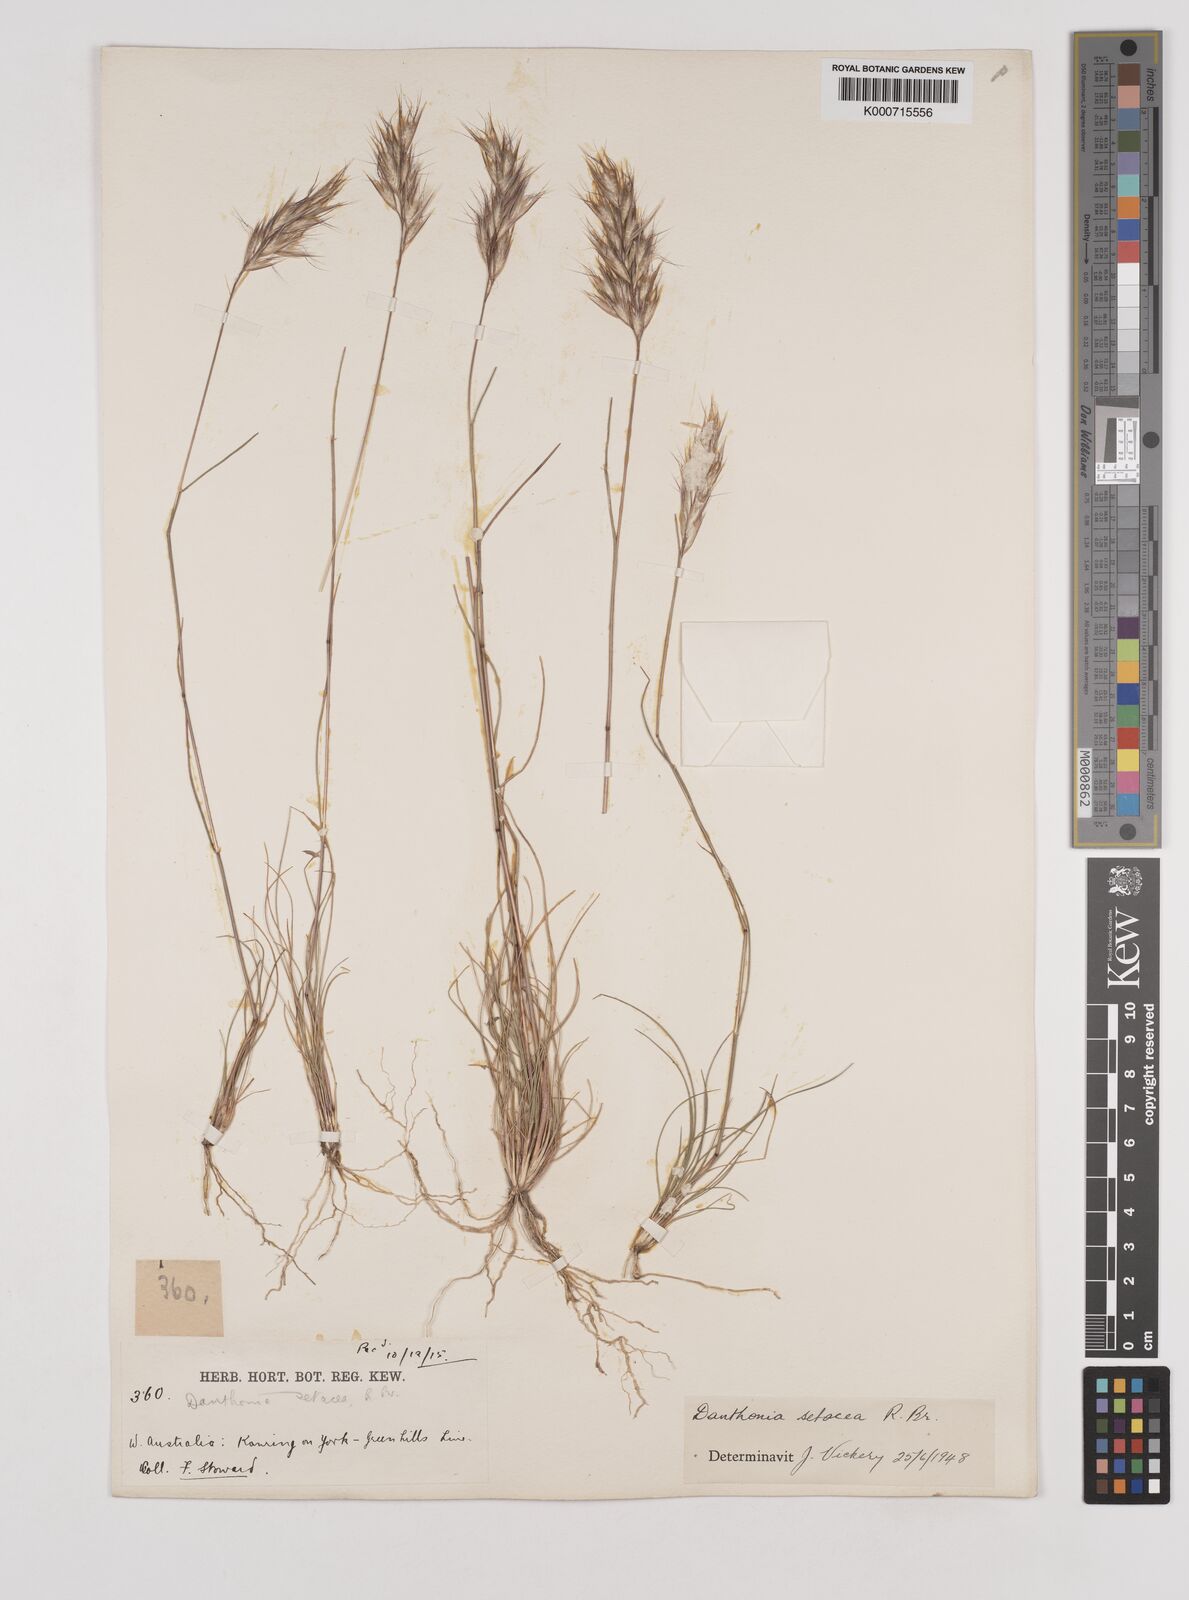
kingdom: Plantae
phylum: Tracheophyta
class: Liliopsida
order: Poales
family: Poaceae
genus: Rytidosperma
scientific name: Rytidosperma setaceum
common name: Small-flower wallaby grass
